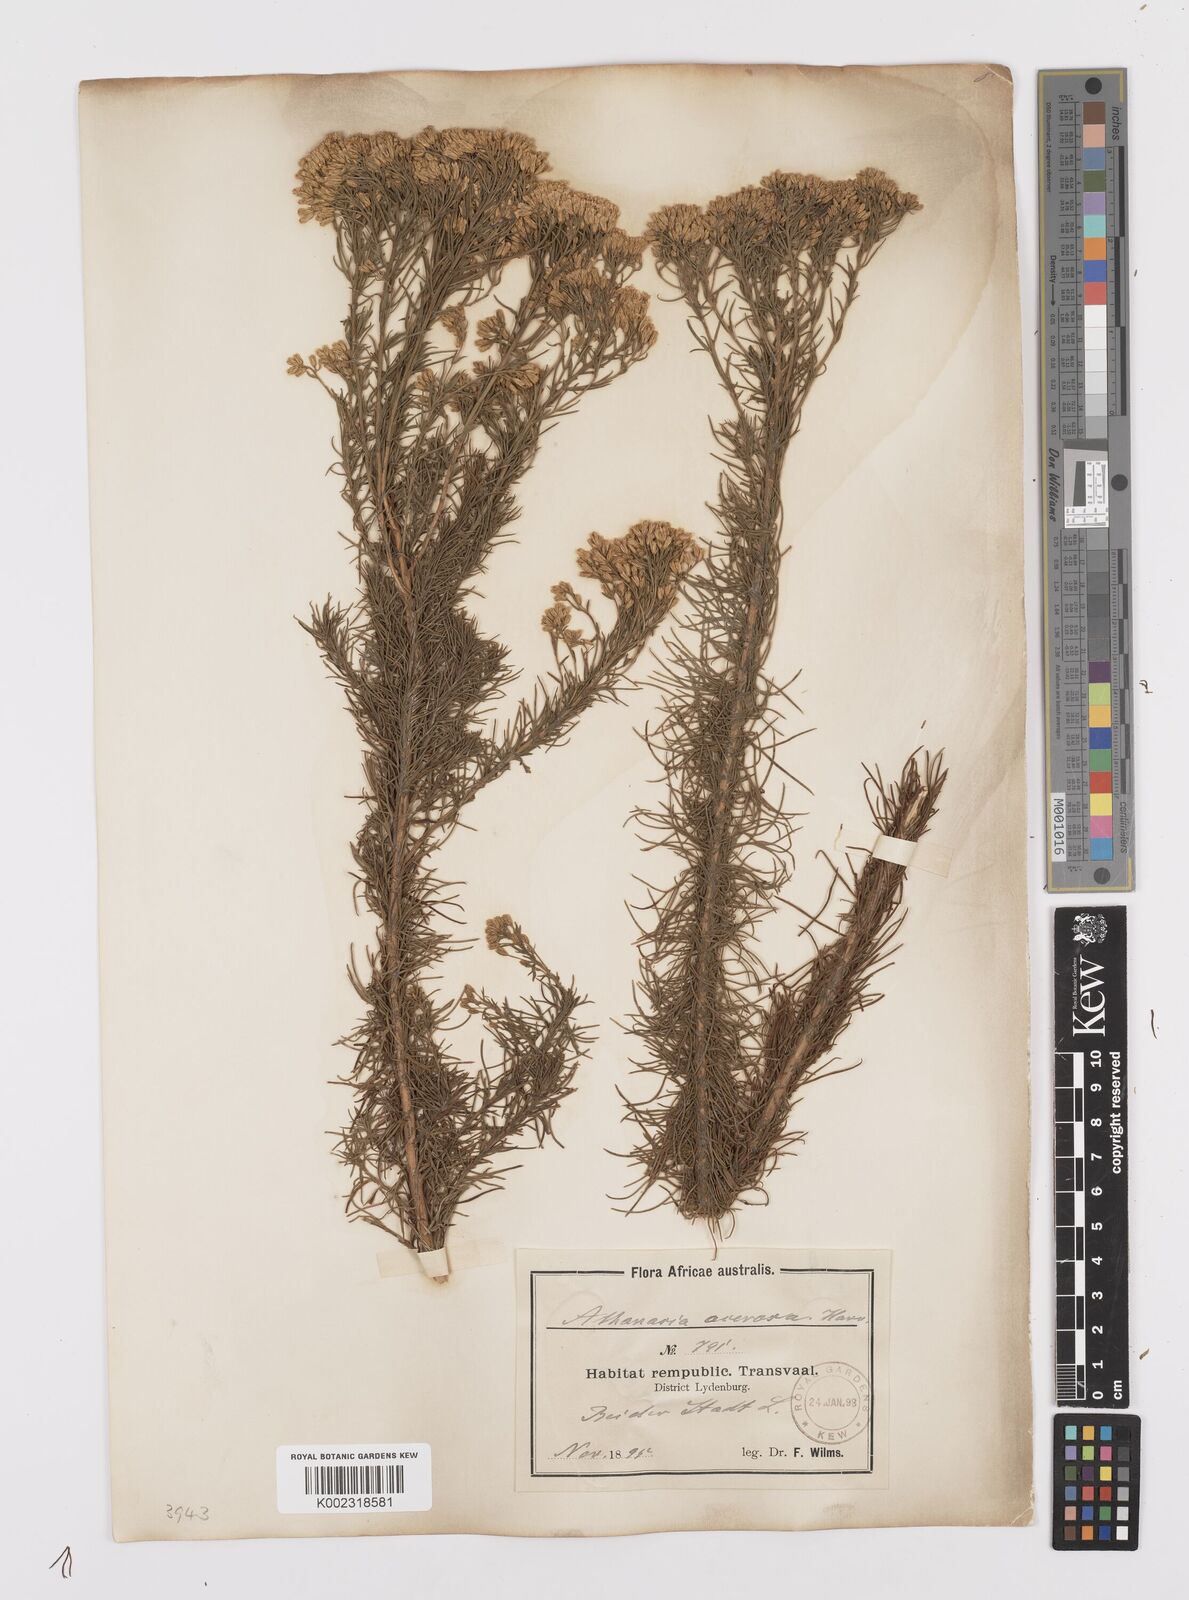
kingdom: Plantae
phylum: Tracheophyta
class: Magnoliopsida
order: Asterales
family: Asteraceae
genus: Phymaspermum
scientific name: Phymaspermum acerosum
